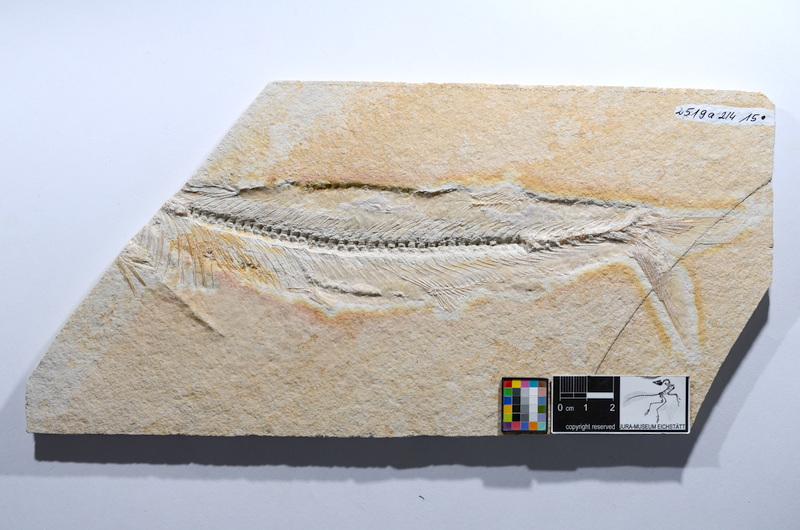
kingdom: Animalia
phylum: Chordata
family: Allothrissopidae
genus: Allothrissops
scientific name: Allothrissops mesogaster
